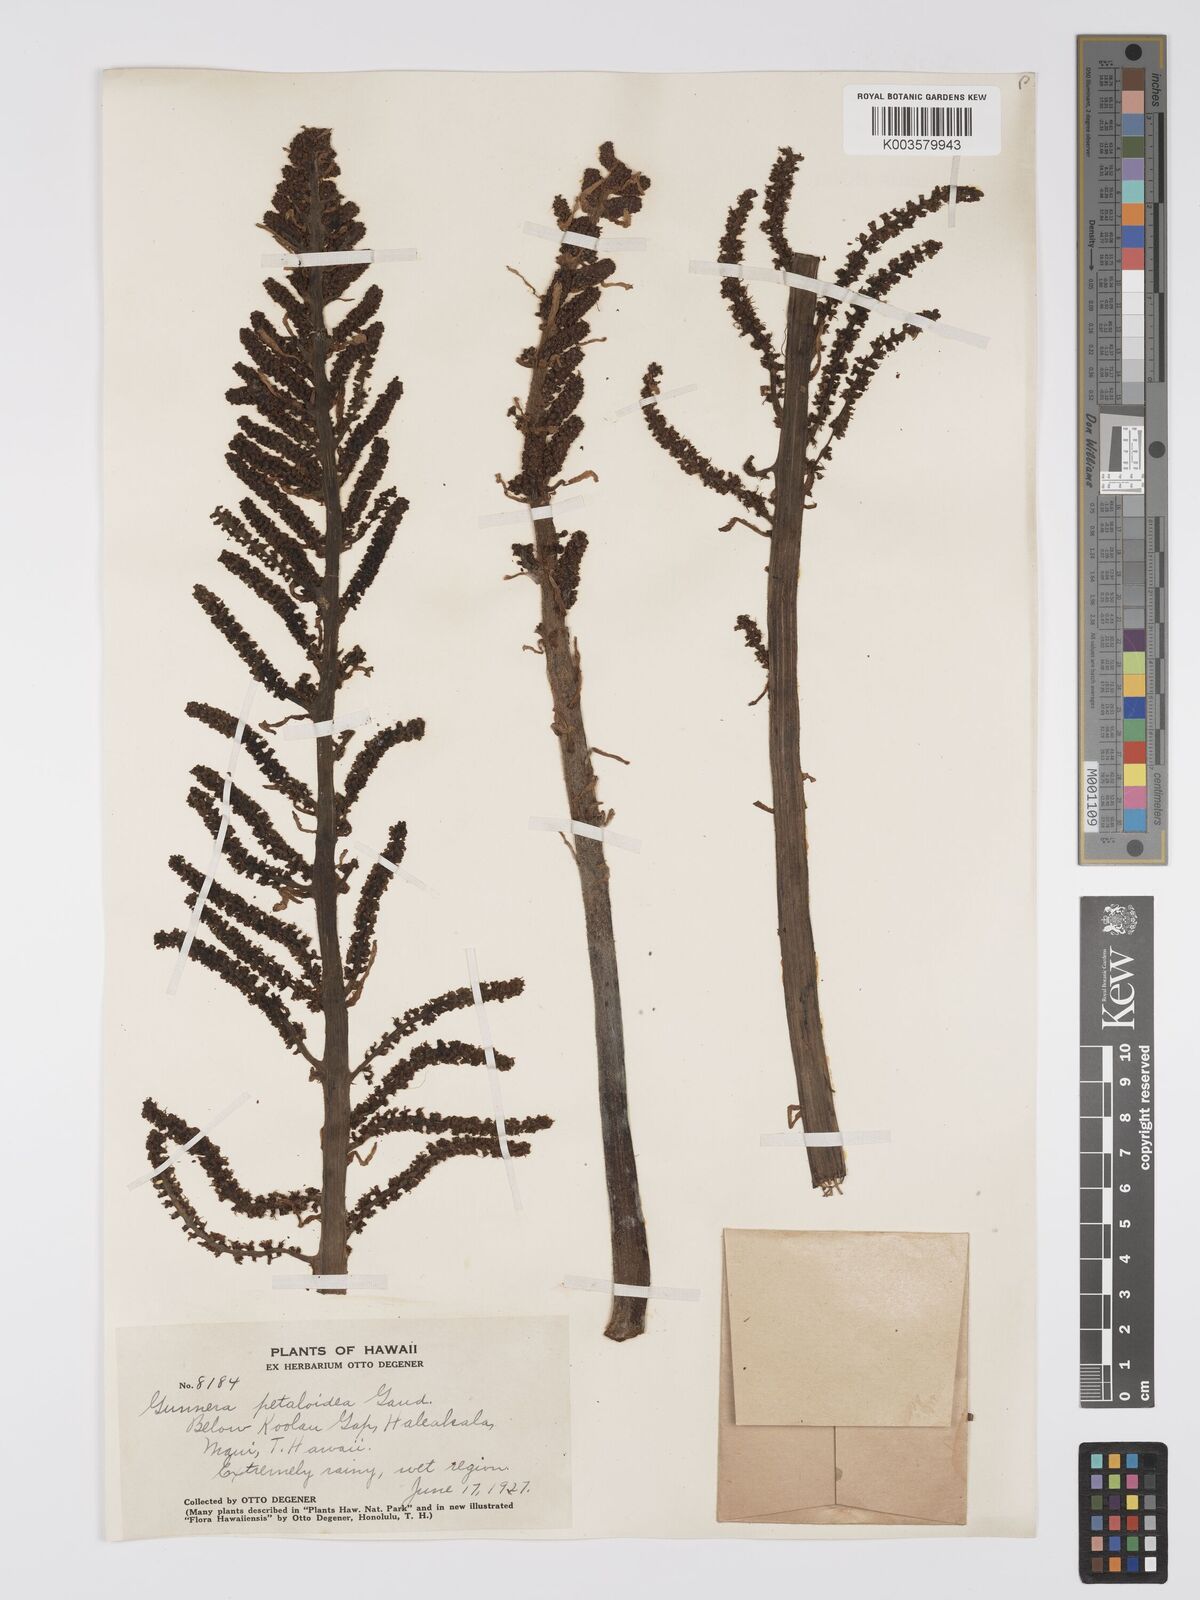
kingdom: Plantae
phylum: Tracheophyta
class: Magnoliopsida
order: Gunnerales
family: Gunneraceae
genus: Gunnera
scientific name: Gunnera petaloidea
